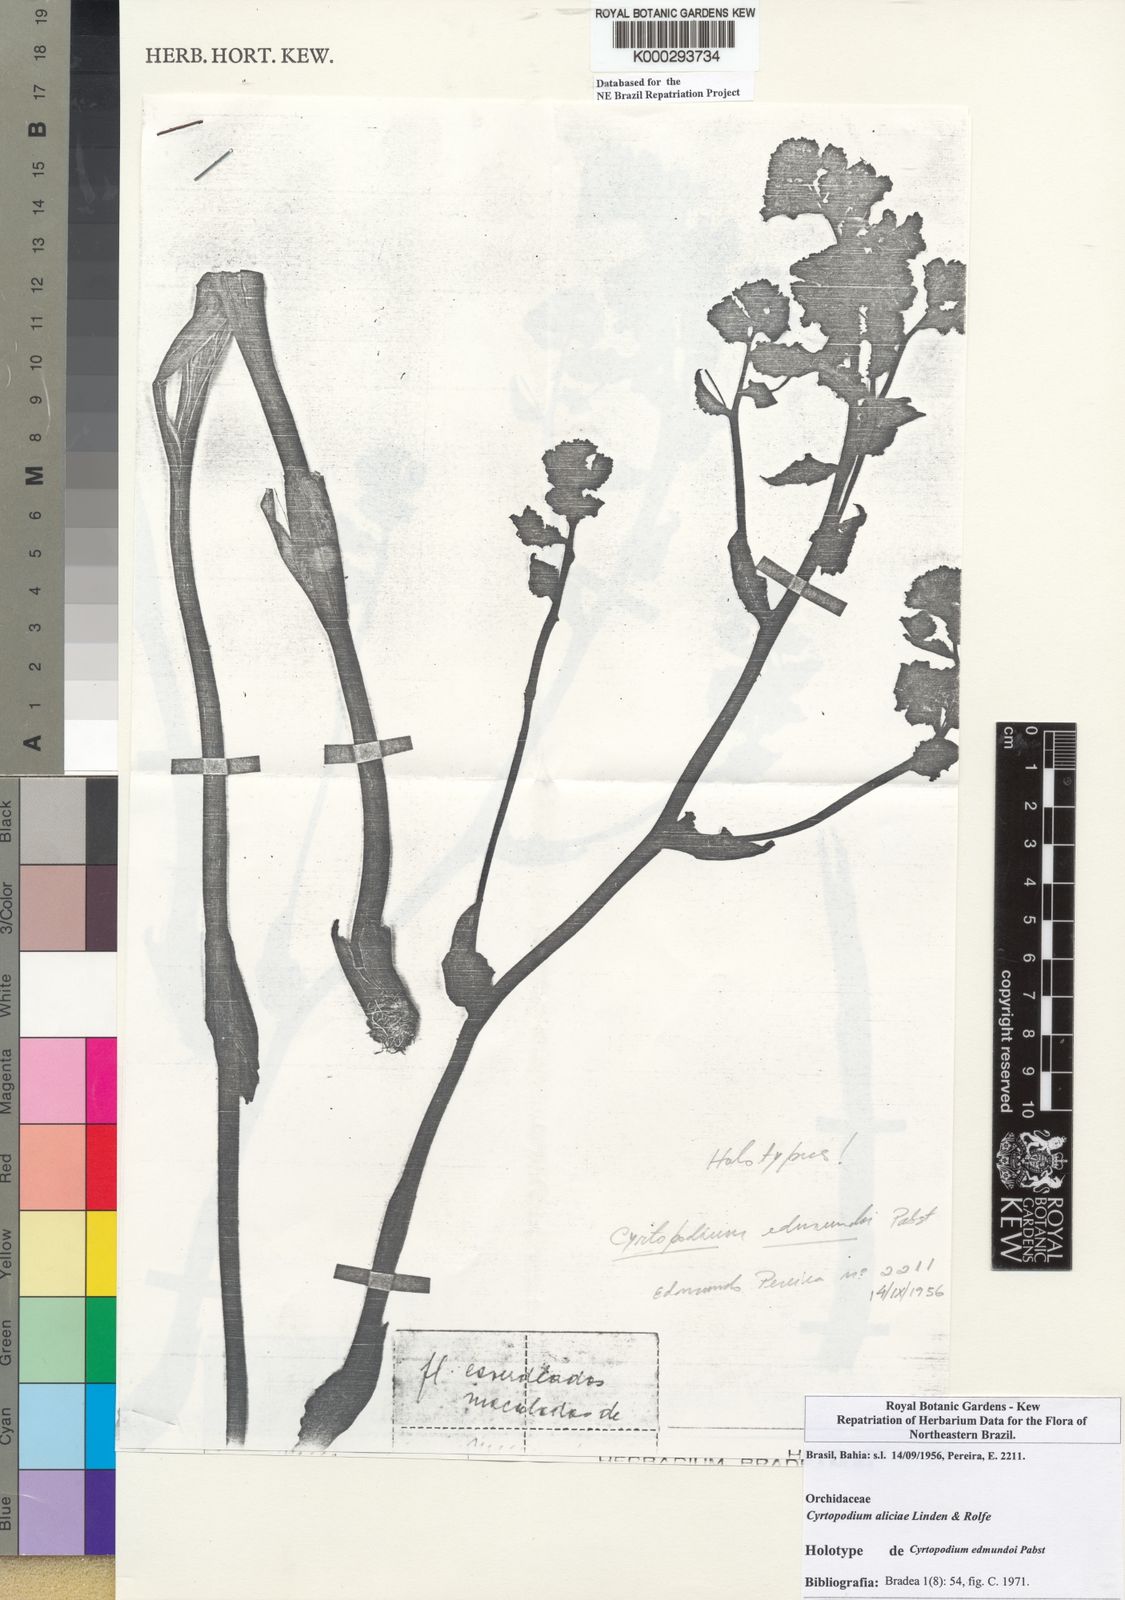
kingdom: Plantae
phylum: Tracheophyta
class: Liliopsida
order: Asparagales
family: Orchidaceae
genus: Cyrtopodium
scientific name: Cyrtopodium aliciae
